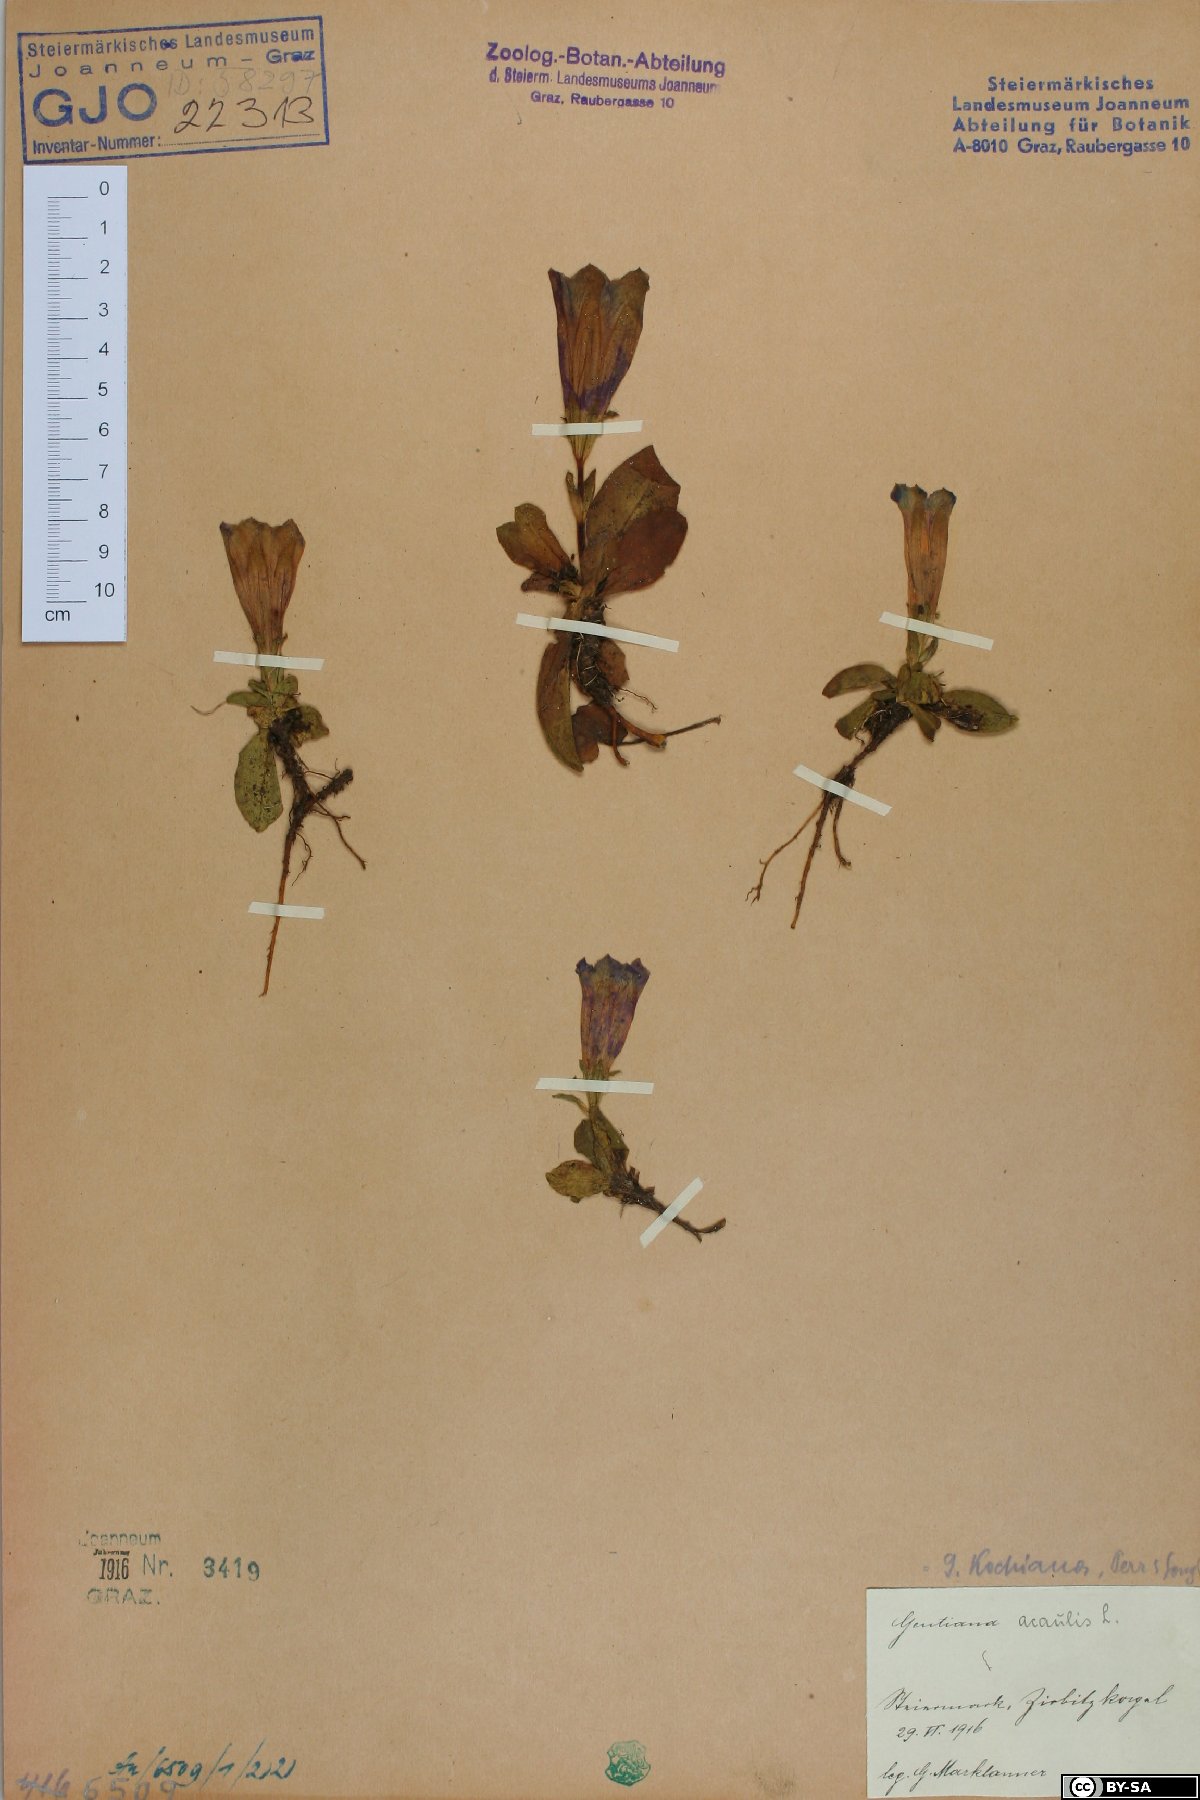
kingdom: Plantae
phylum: Tracheophyta
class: Magnoliopsida
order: Gentianales
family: Gentianaceae
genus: Gentiana
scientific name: Gentiana acaulis
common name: Trumpet gentian
